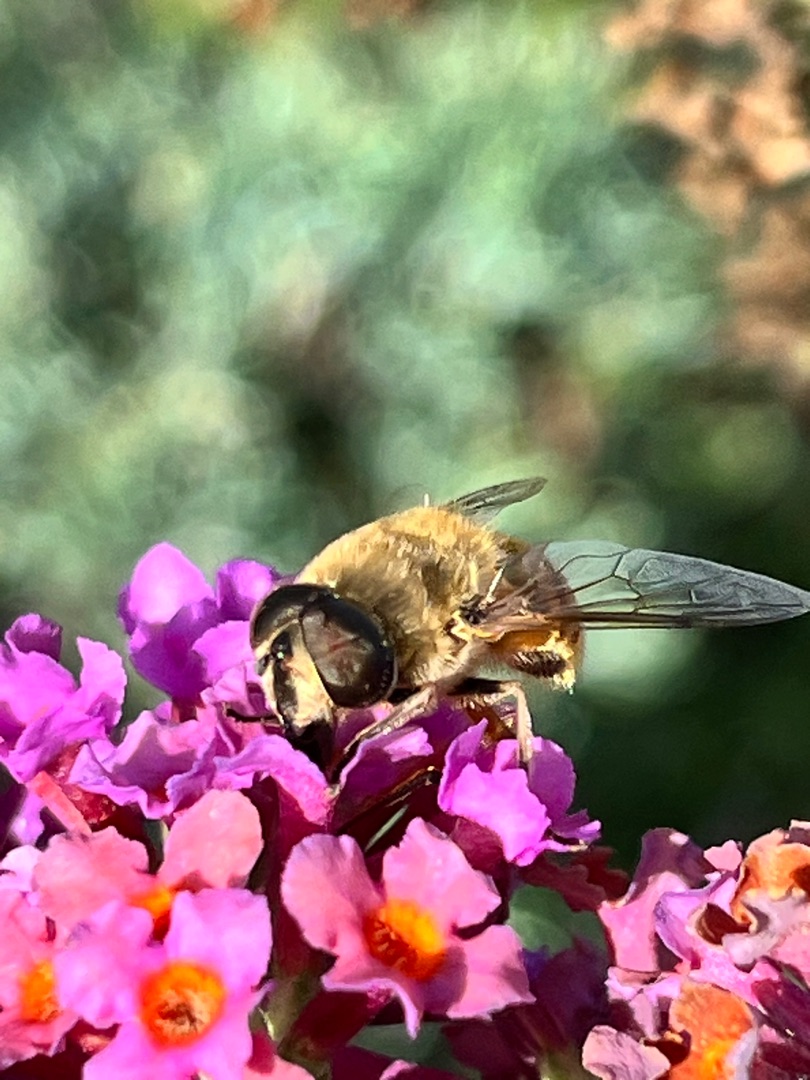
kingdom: Animalia
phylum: Arthropoda
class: Insecta
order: Diptera
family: Syrphidae
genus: Eristalis
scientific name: Eristalis tenax
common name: Droneflue
